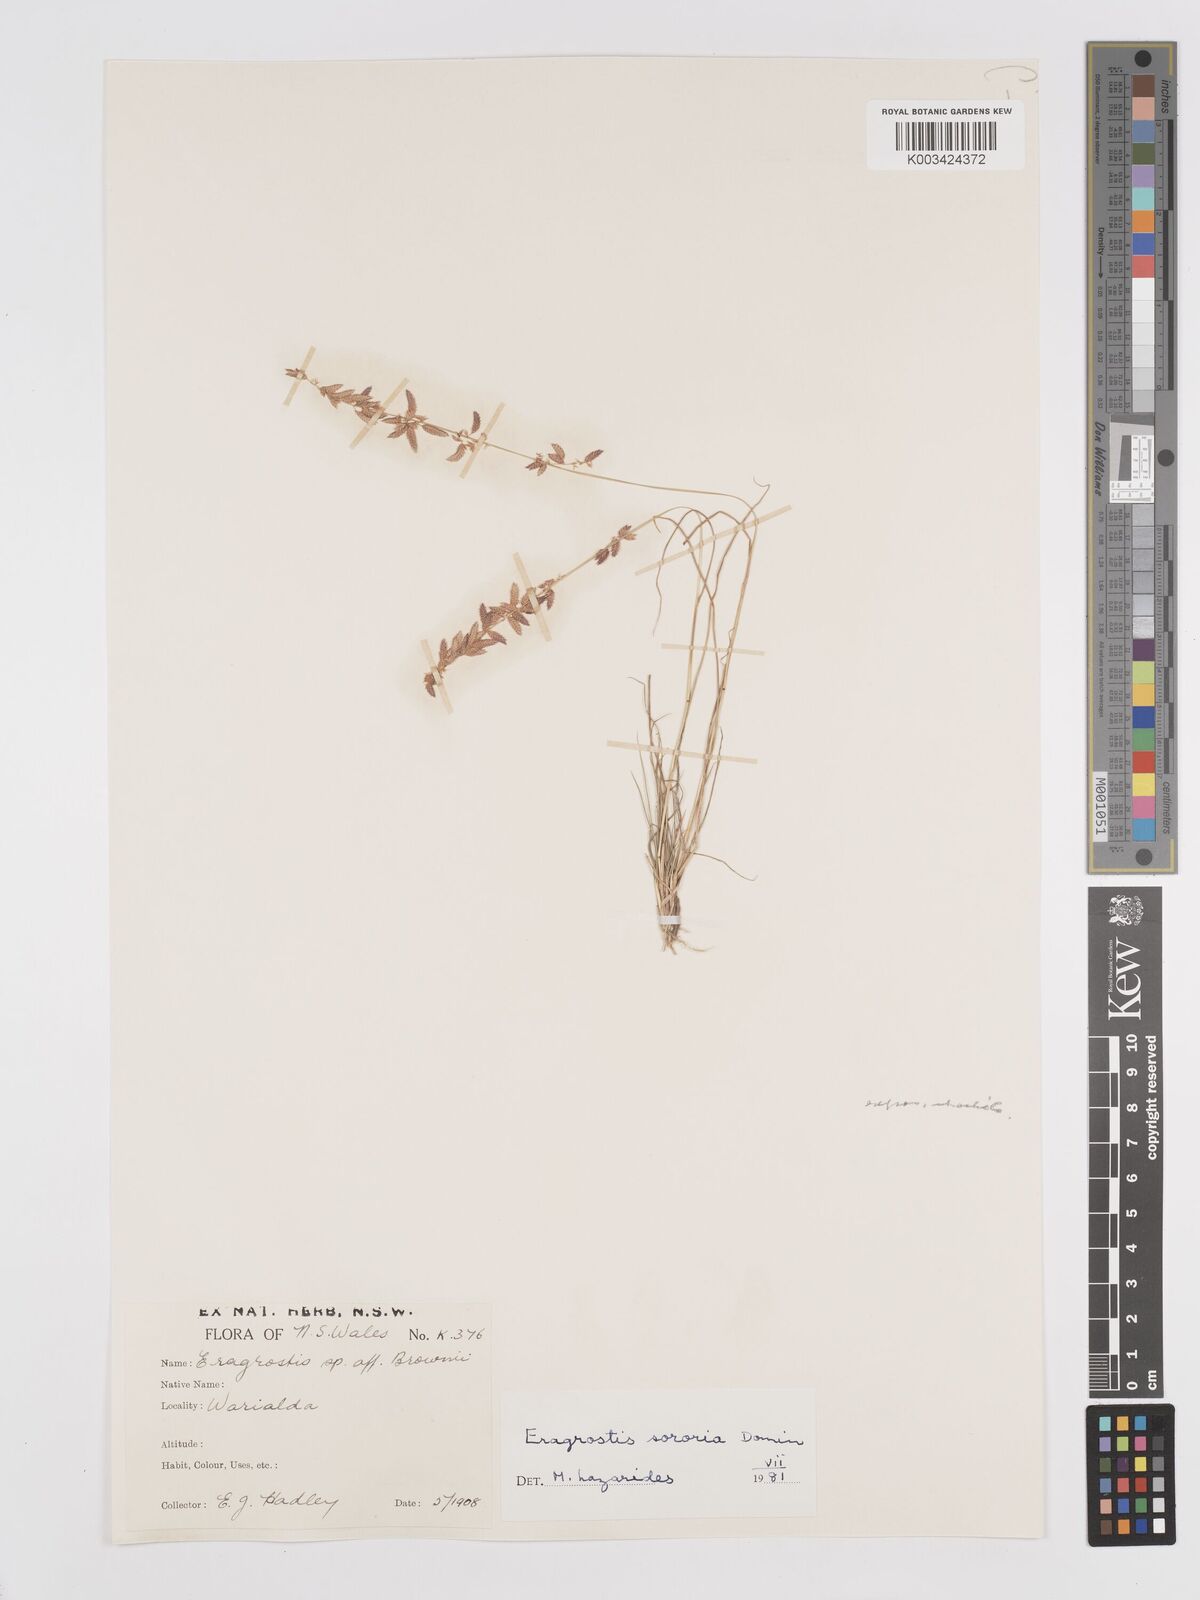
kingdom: Plantae
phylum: Tracheophyta
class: Liliopsida
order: Poales
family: Poaceae
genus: Eragrostis
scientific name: Eragrostis sororia
